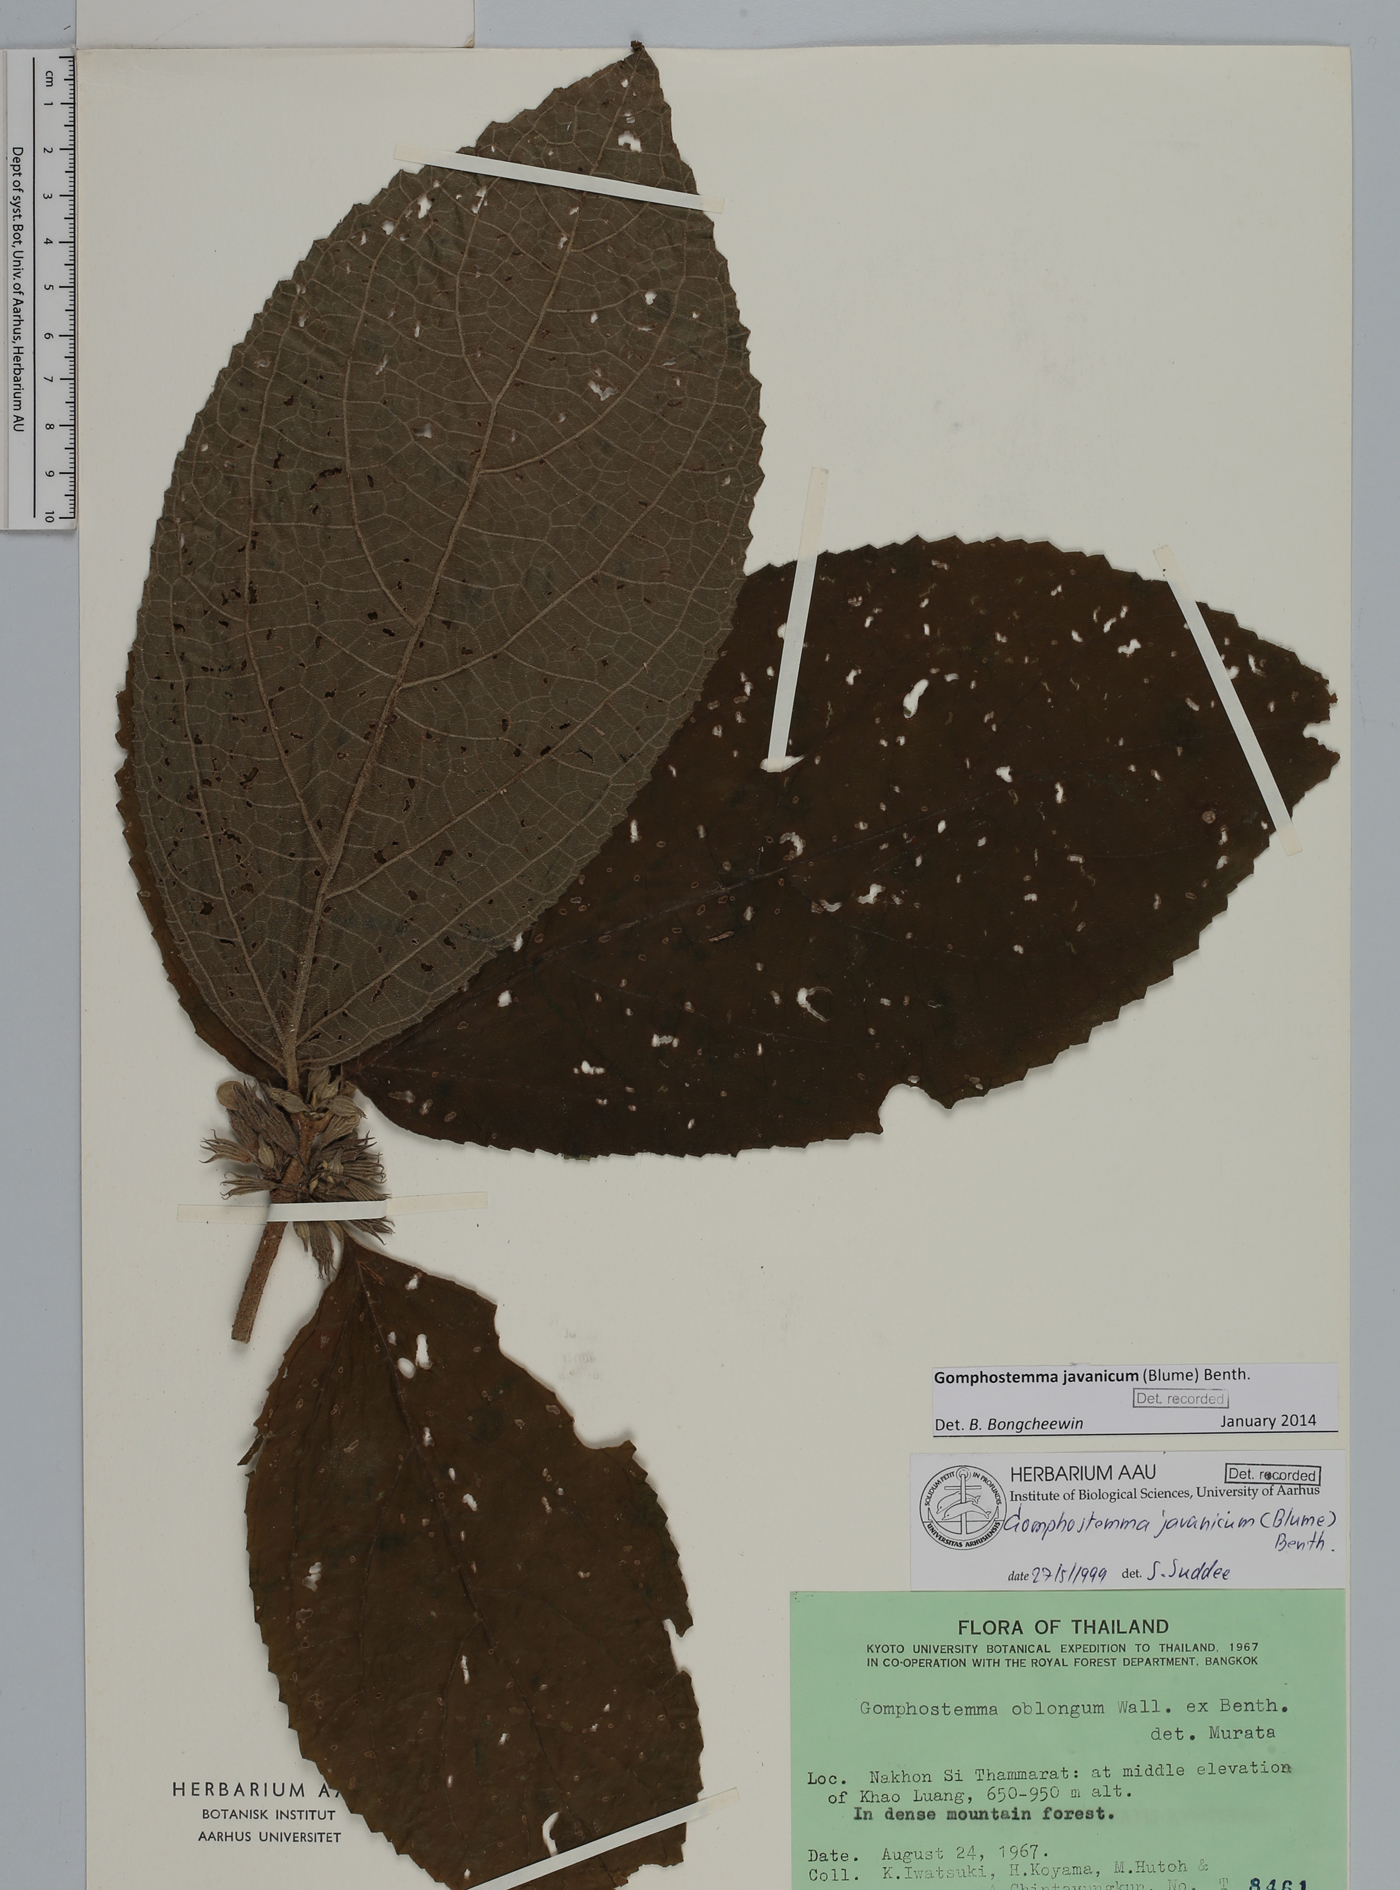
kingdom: Plantae
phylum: Tracheophyta
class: Magnoliopsida
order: Lamiales
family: Lamiaceae
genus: Gomphostemma
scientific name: Gomphostemma javanicum
